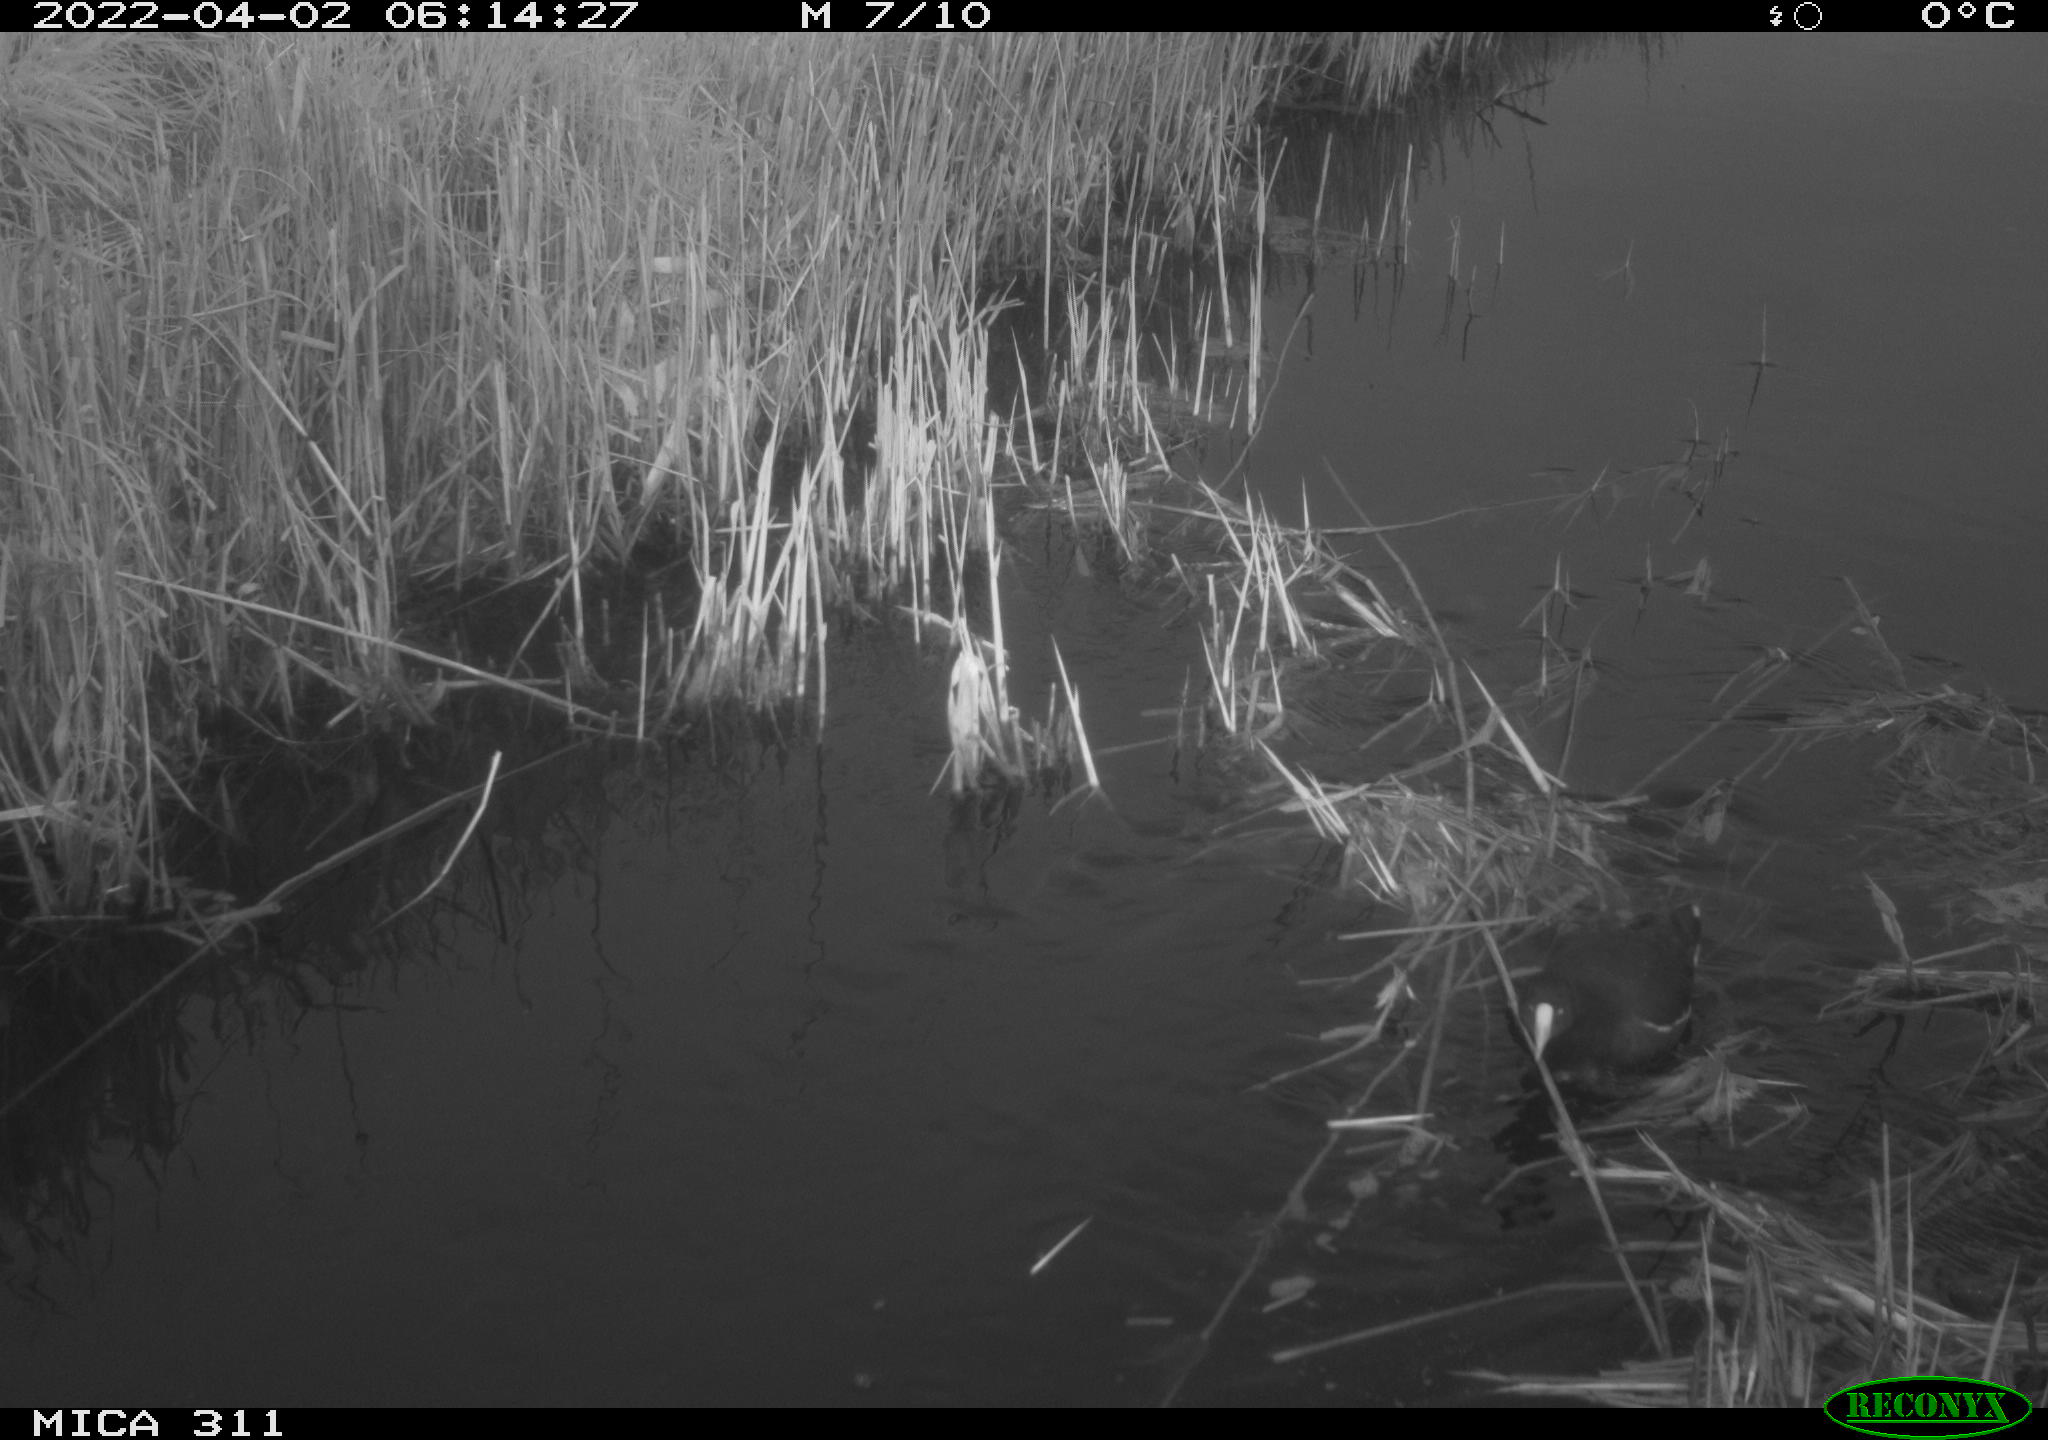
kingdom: Animalia
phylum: Chordata
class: Aves
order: Gruiformes
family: Rallidae
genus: Gallinula
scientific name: Gallinula chloropus
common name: Common moorhen
